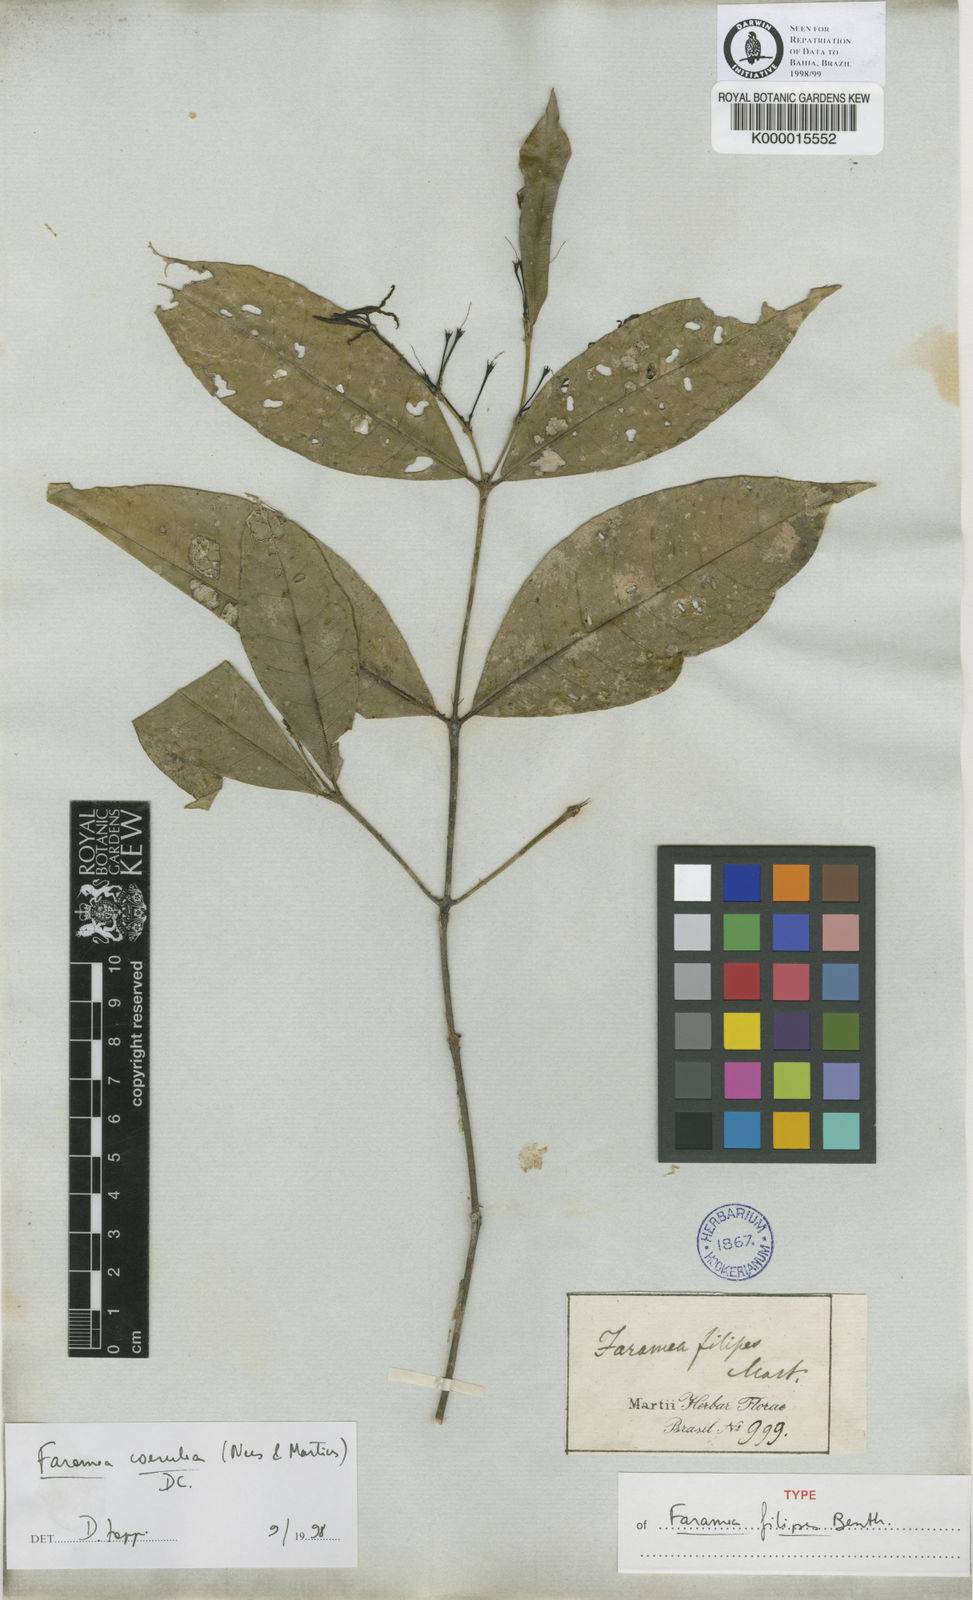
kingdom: Plantae
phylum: Tracheophyta
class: Magnoliopsida
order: Gentianales
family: Rubiaceae
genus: Faramea
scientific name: Faramea coerulea
